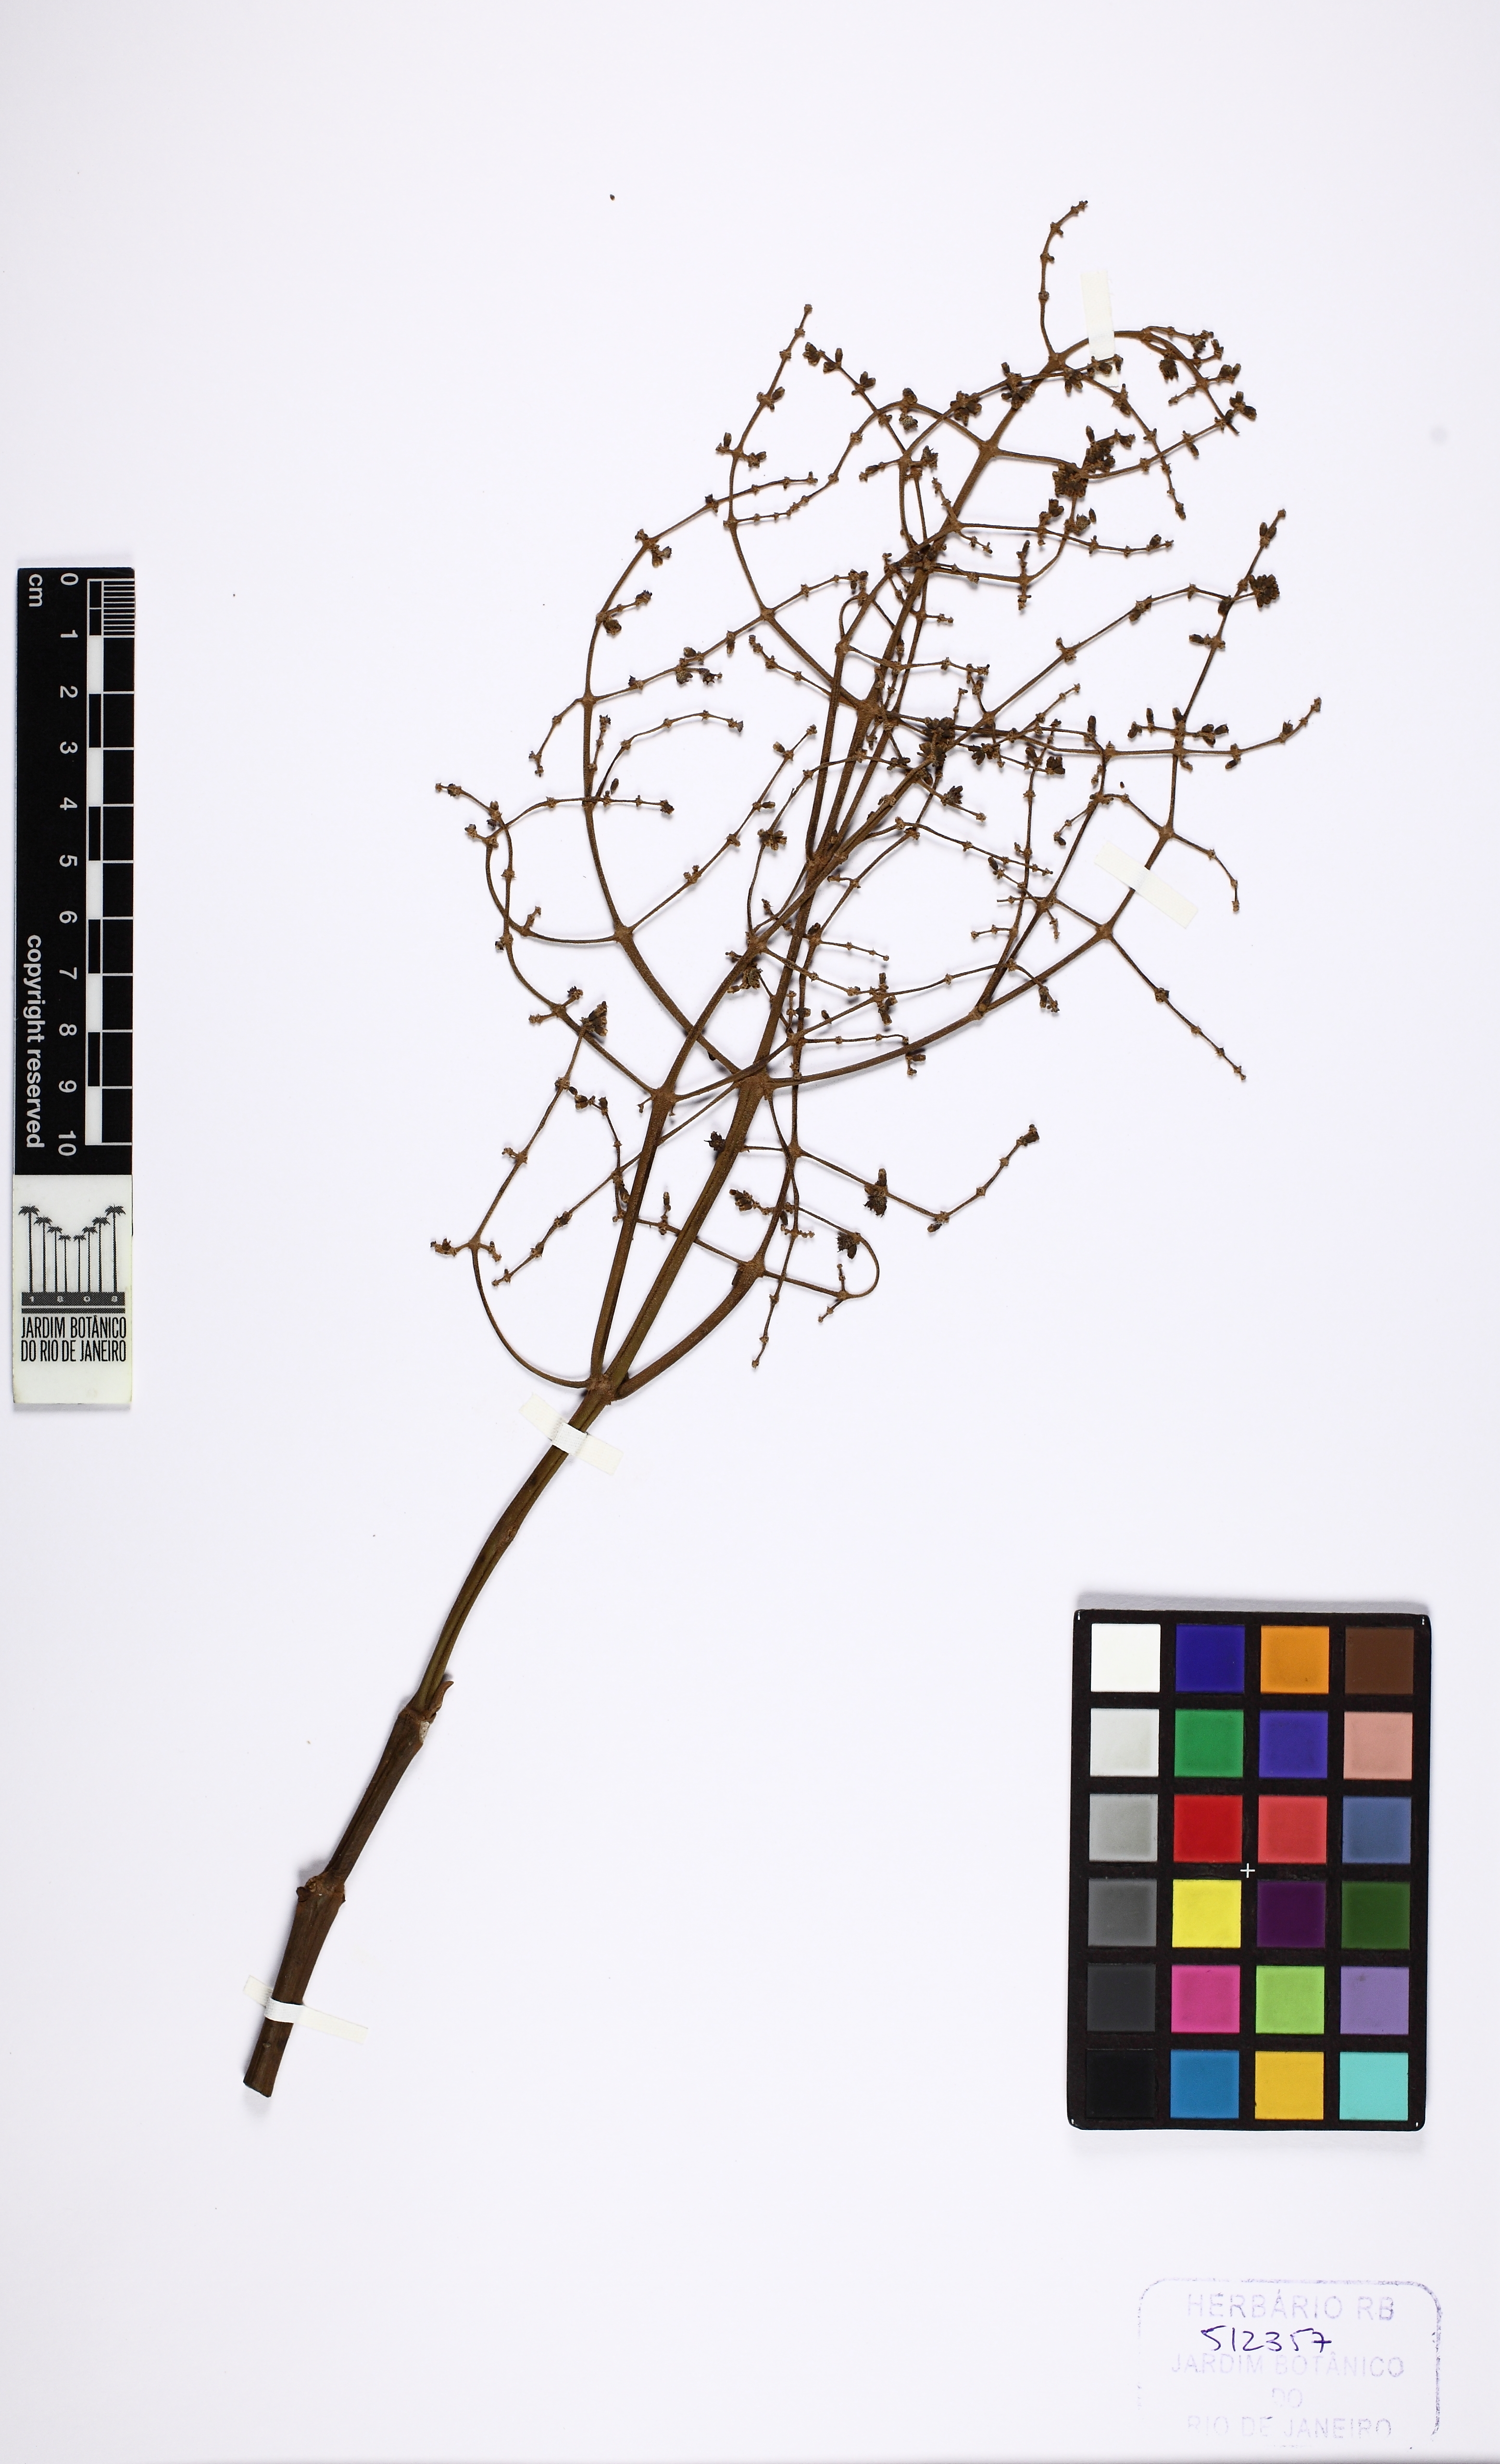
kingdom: Plantae
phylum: Tracheophyta
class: Magnoliopsida
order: Myrtales
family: Melastomataceae
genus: Miconia
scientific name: Miconia
